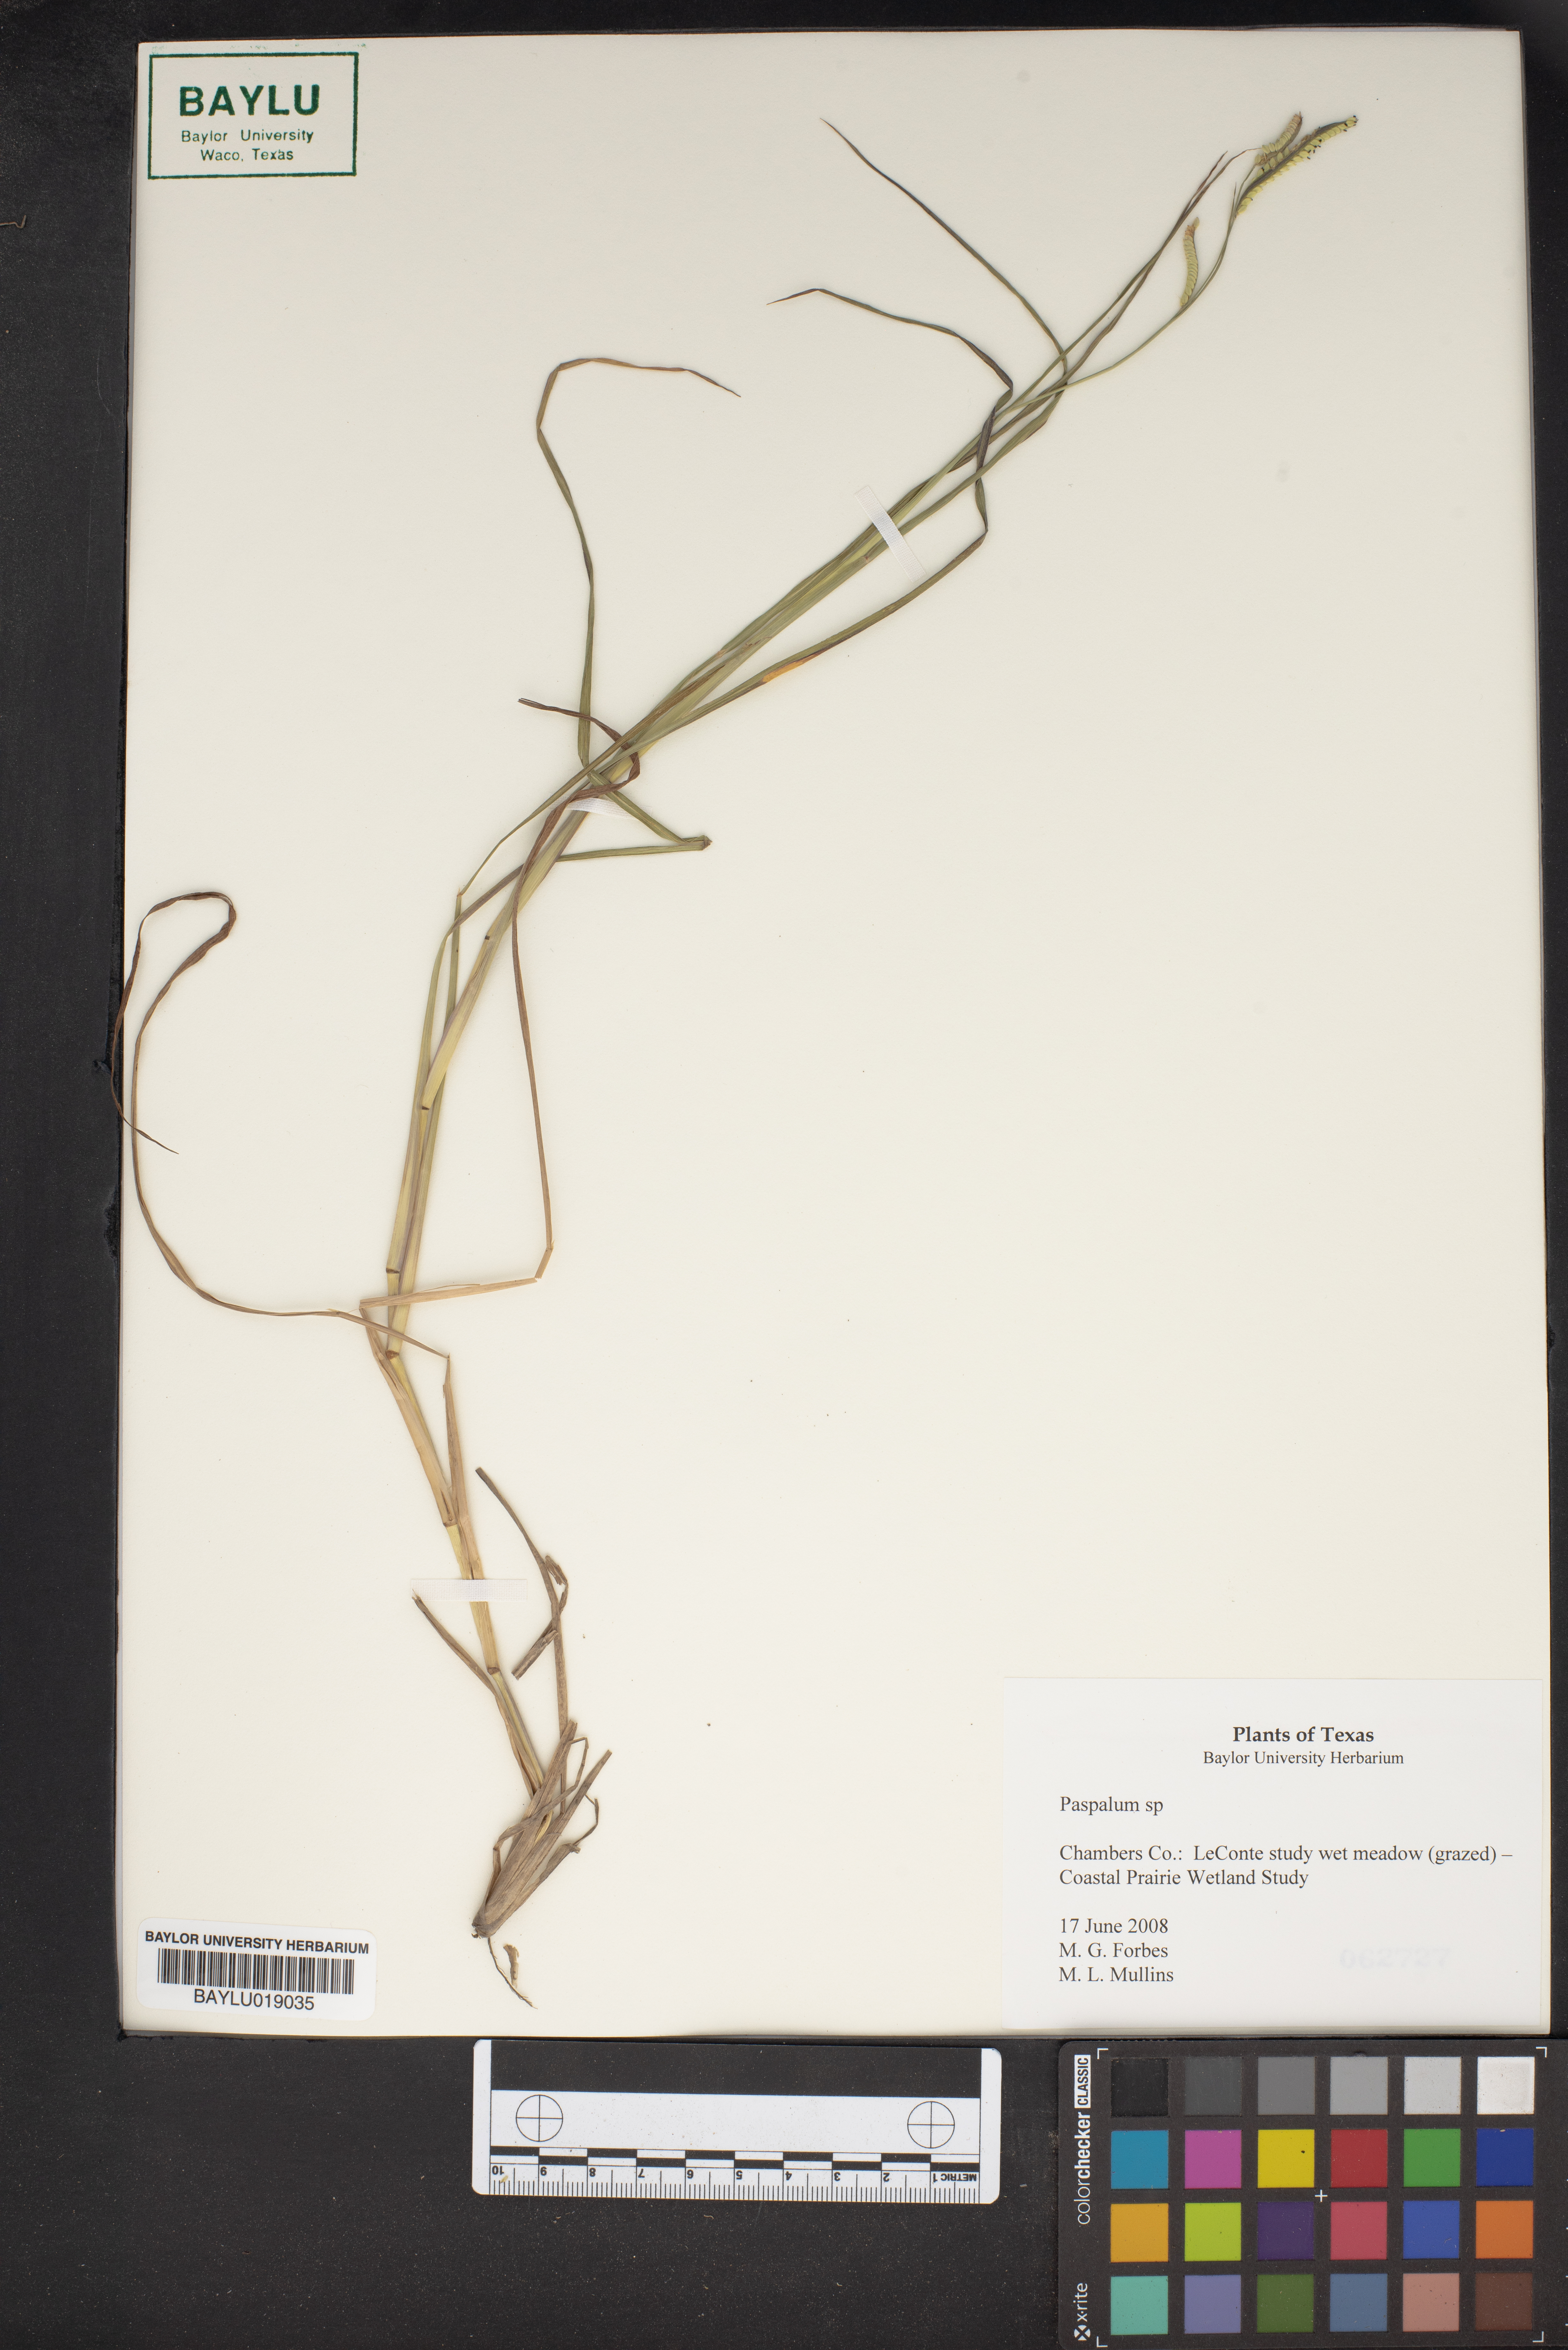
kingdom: Plantae
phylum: Tracheophyta
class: Liliopsida
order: Poales
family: Poaceae
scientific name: Poaceae
